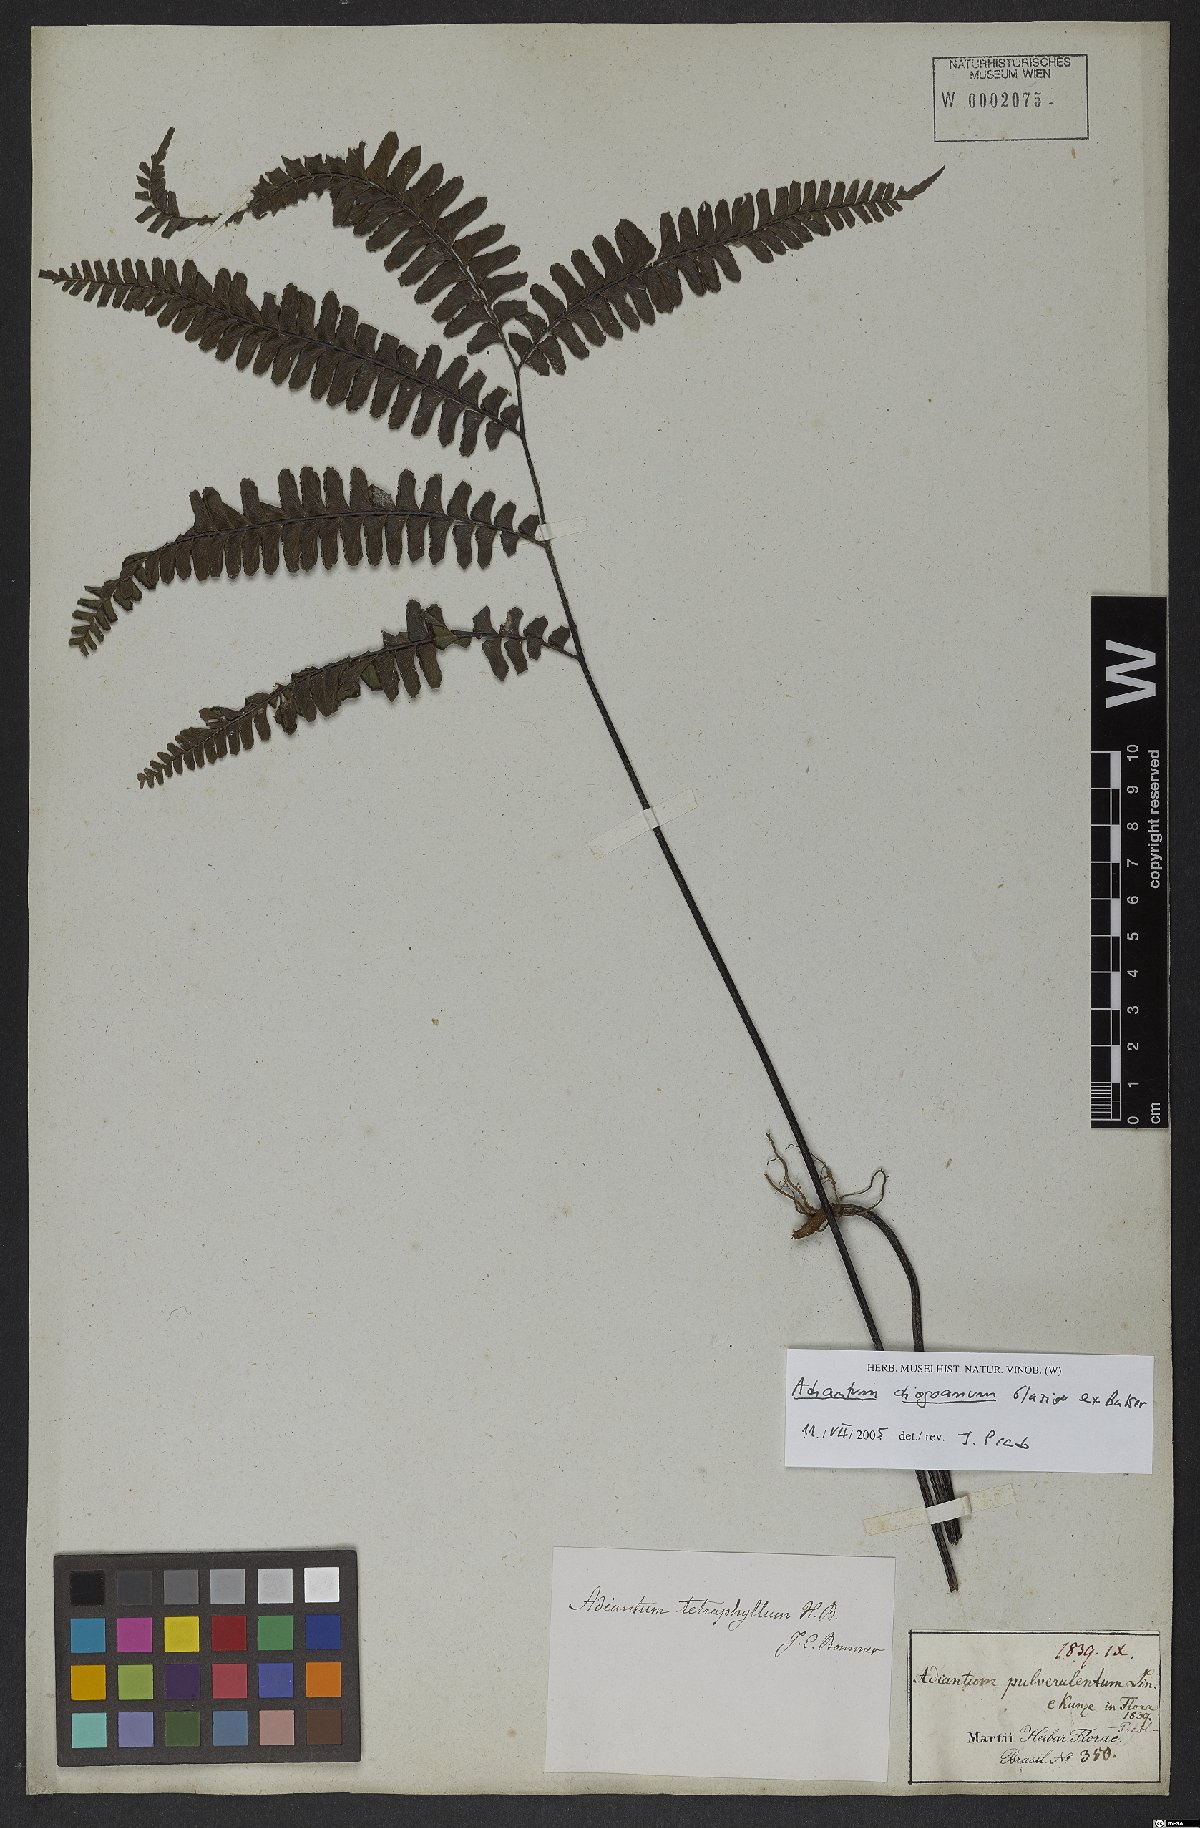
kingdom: Plantae
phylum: Tracheophyta
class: Polypodiopsida
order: Polypodiales
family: Pteridaceae
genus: Adiantum
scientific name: Adiantum diogoanum
